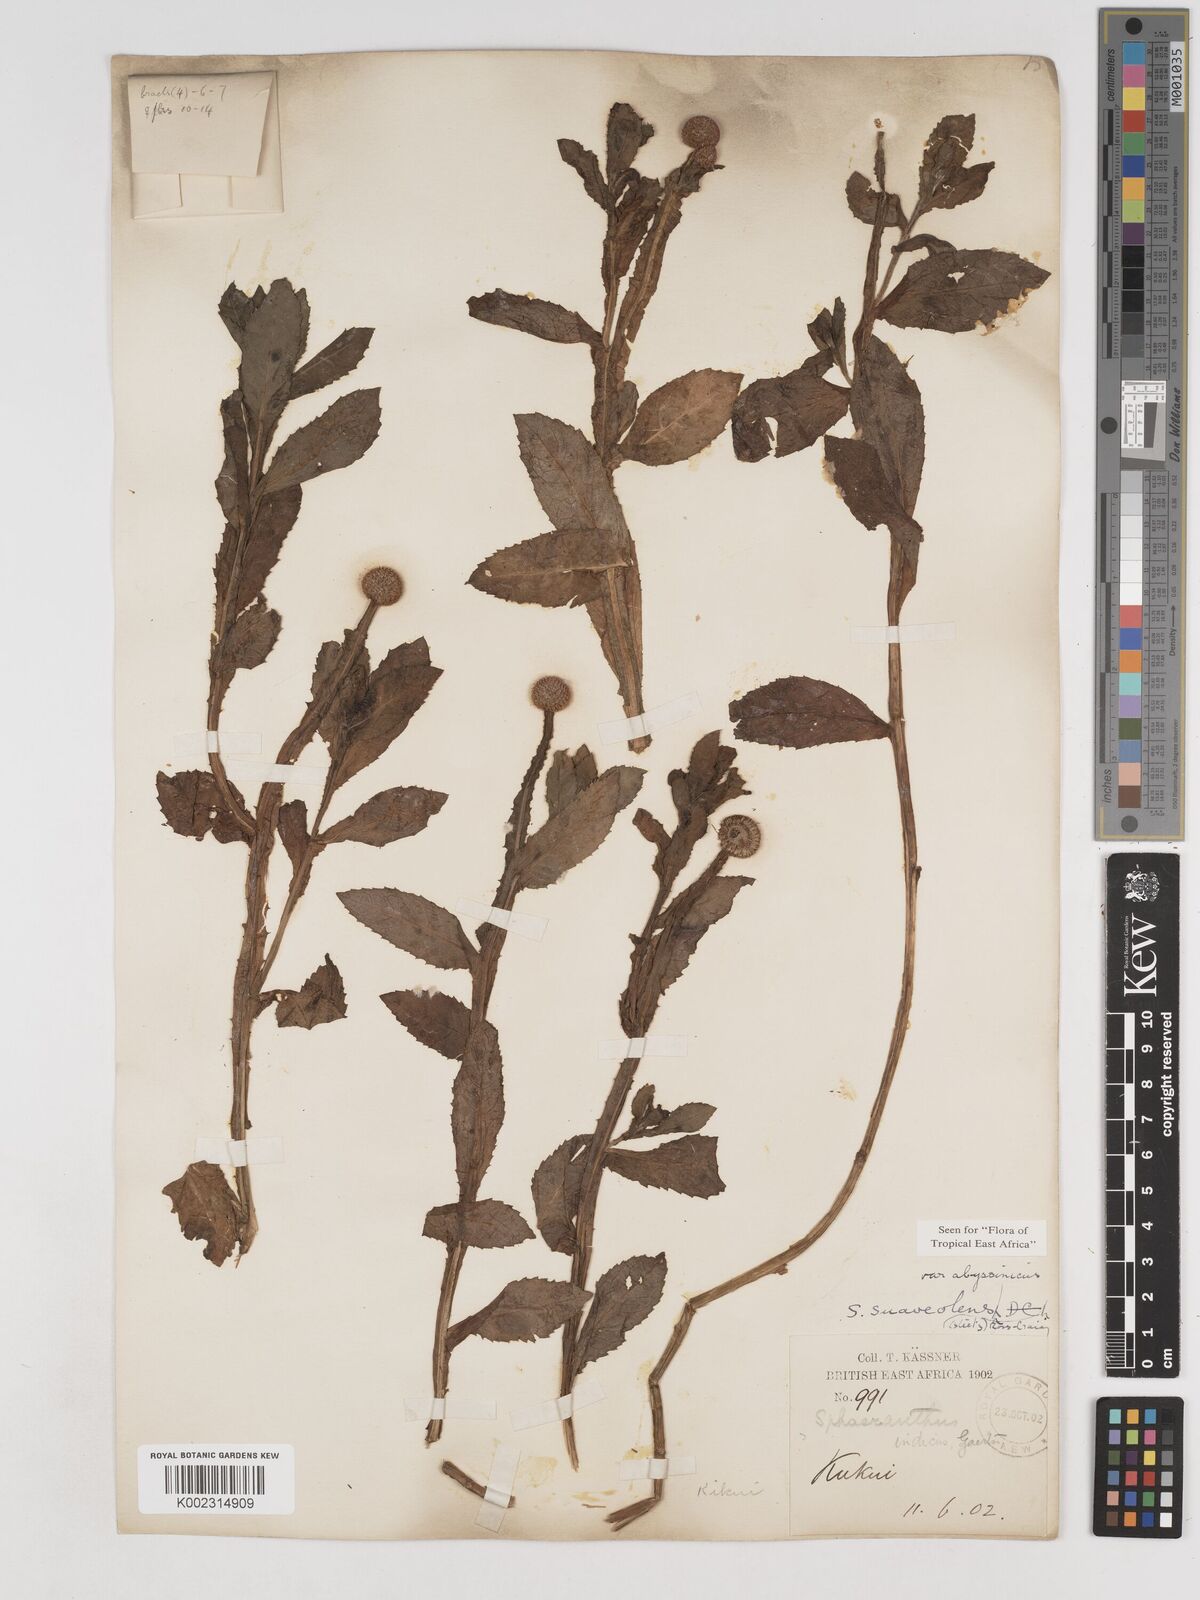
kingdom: Plantae
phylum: Tracheophyta
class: Magnoliopsida
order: Asterales
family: Asteraceae
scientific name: Asteraceae
